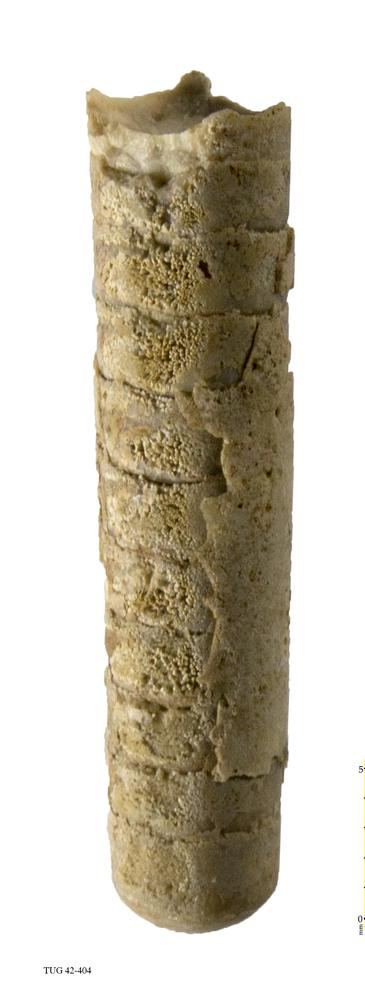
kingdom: Animalia
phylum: Mollusca
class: Cephalopoda
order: Orthocerida
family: Orthoceratidae
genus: Orthoceras
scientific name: Orthoceras regulare
